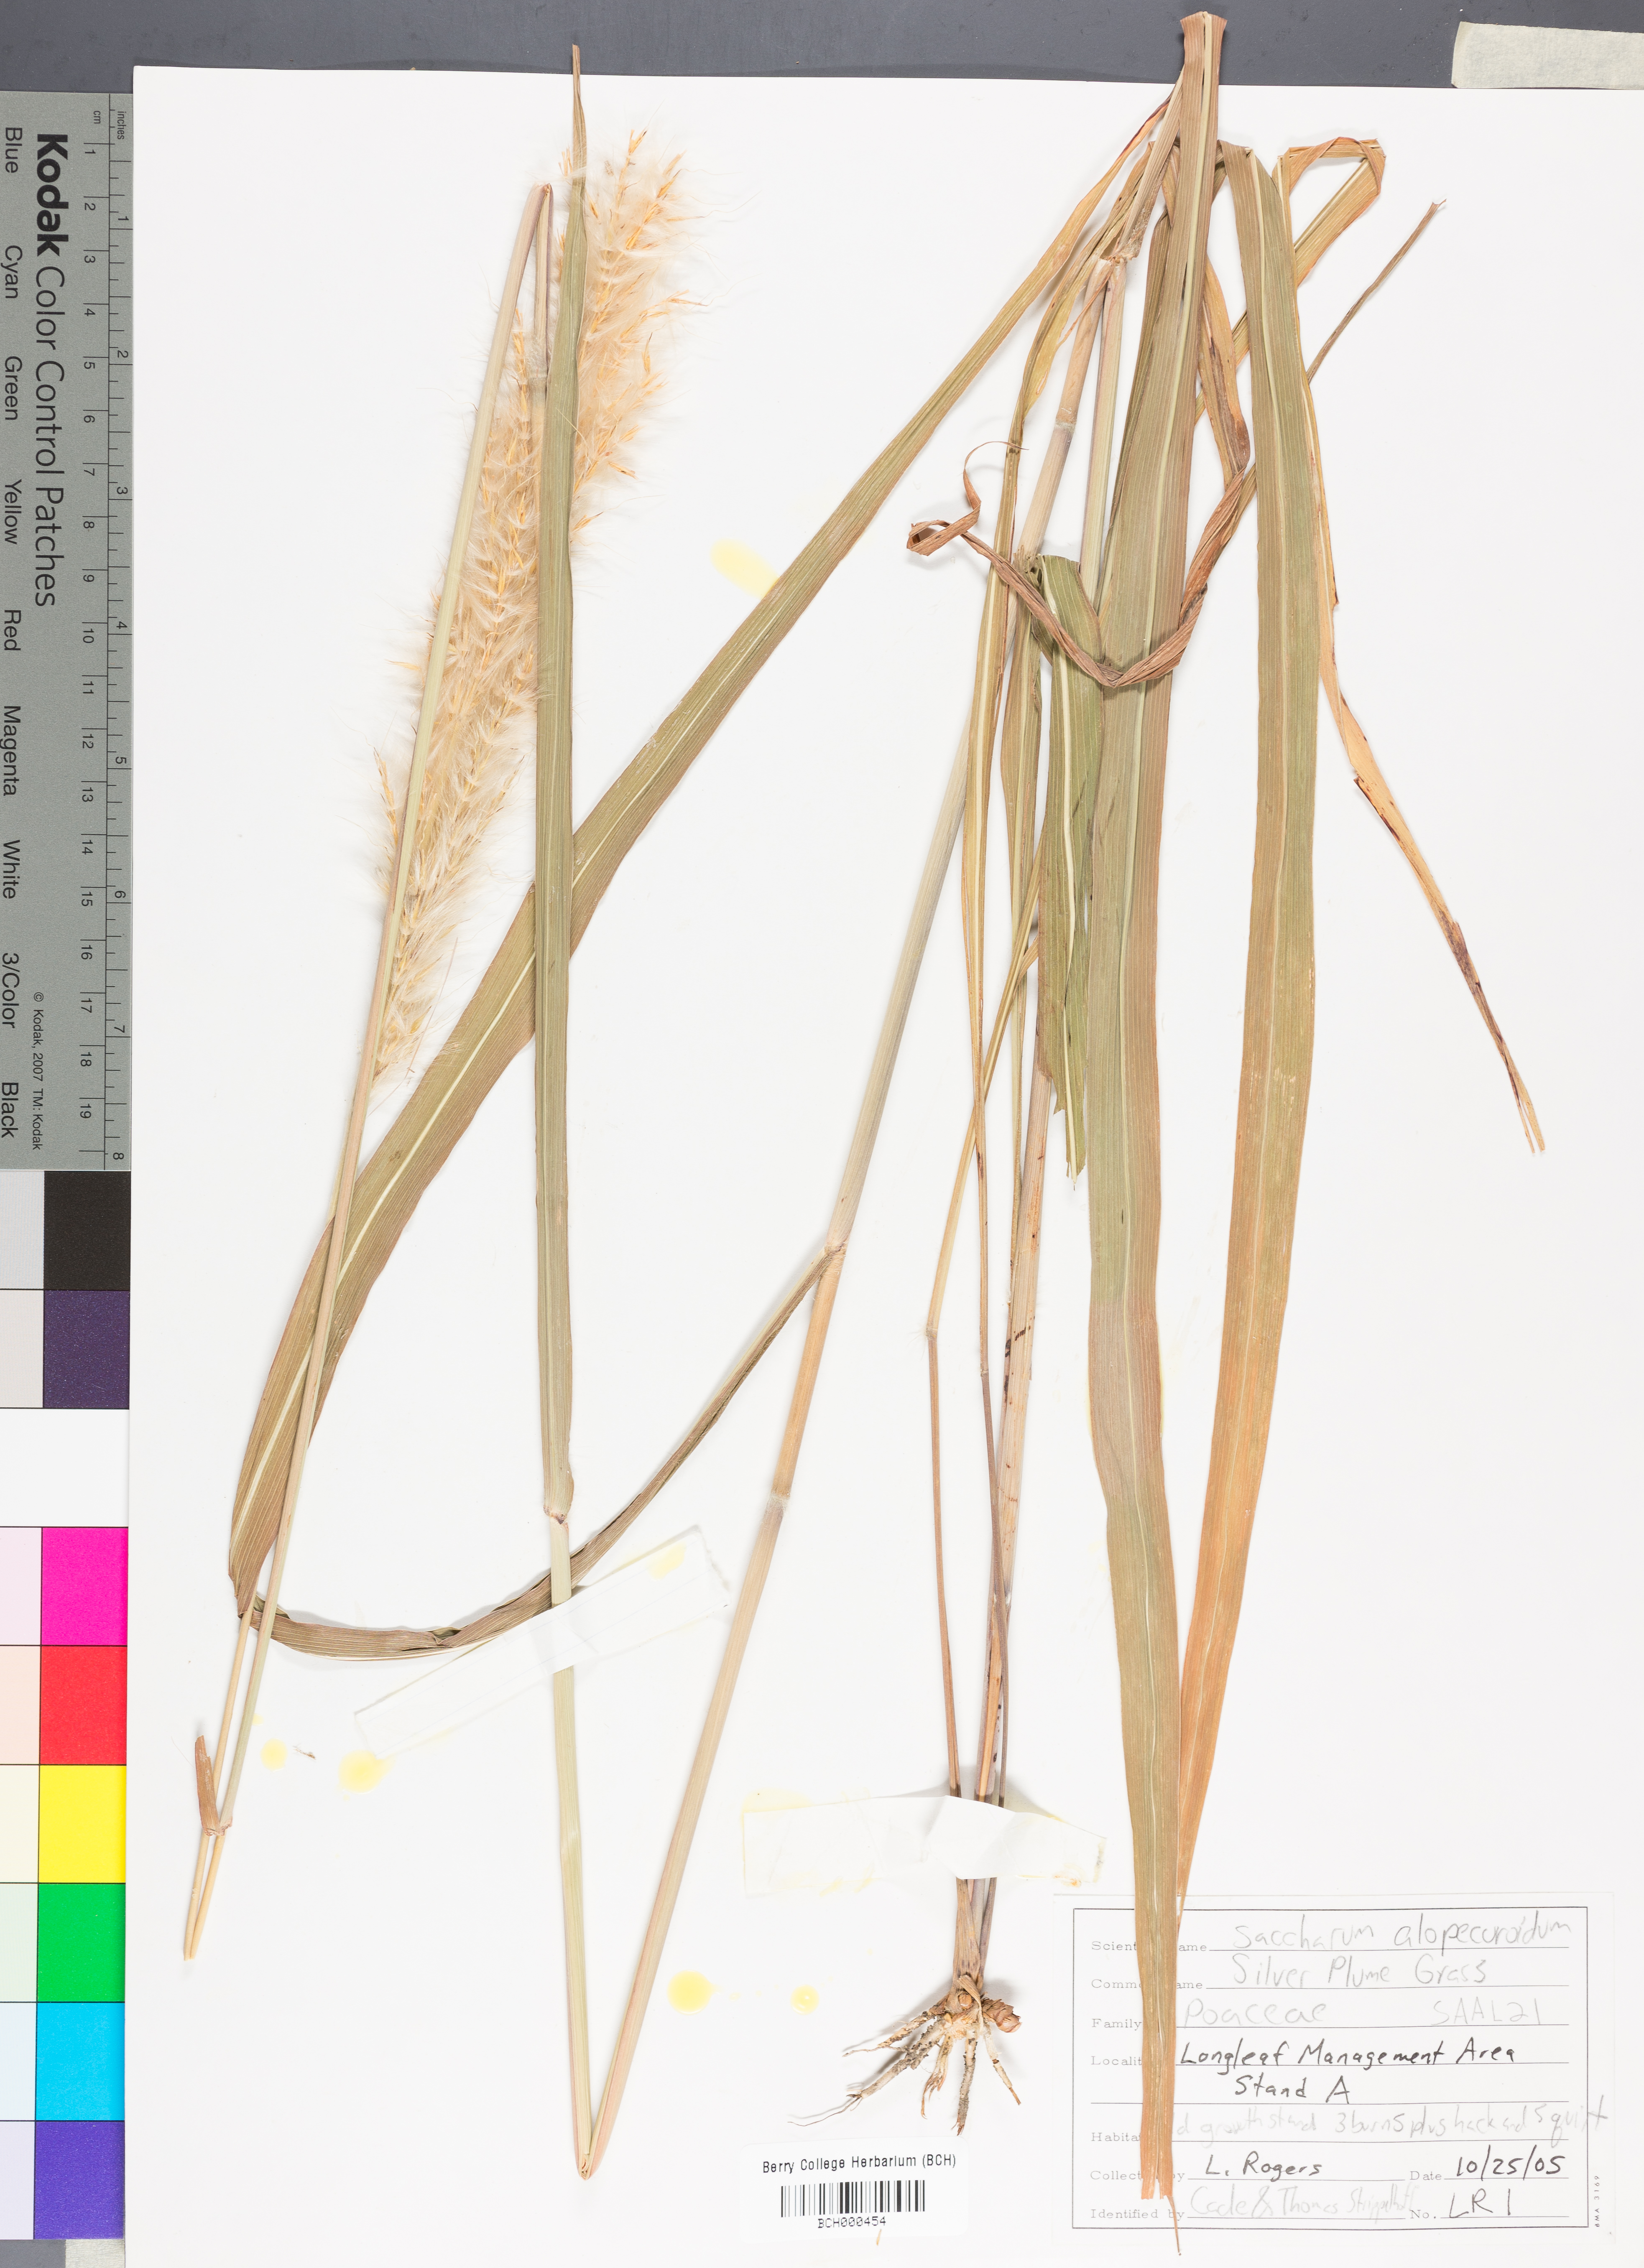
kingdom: Plantae
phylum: Tracheophyta
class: Liliopsida
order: Poales
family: Poaceae
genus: Erianthus
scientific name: Erianthus alopecuroides
